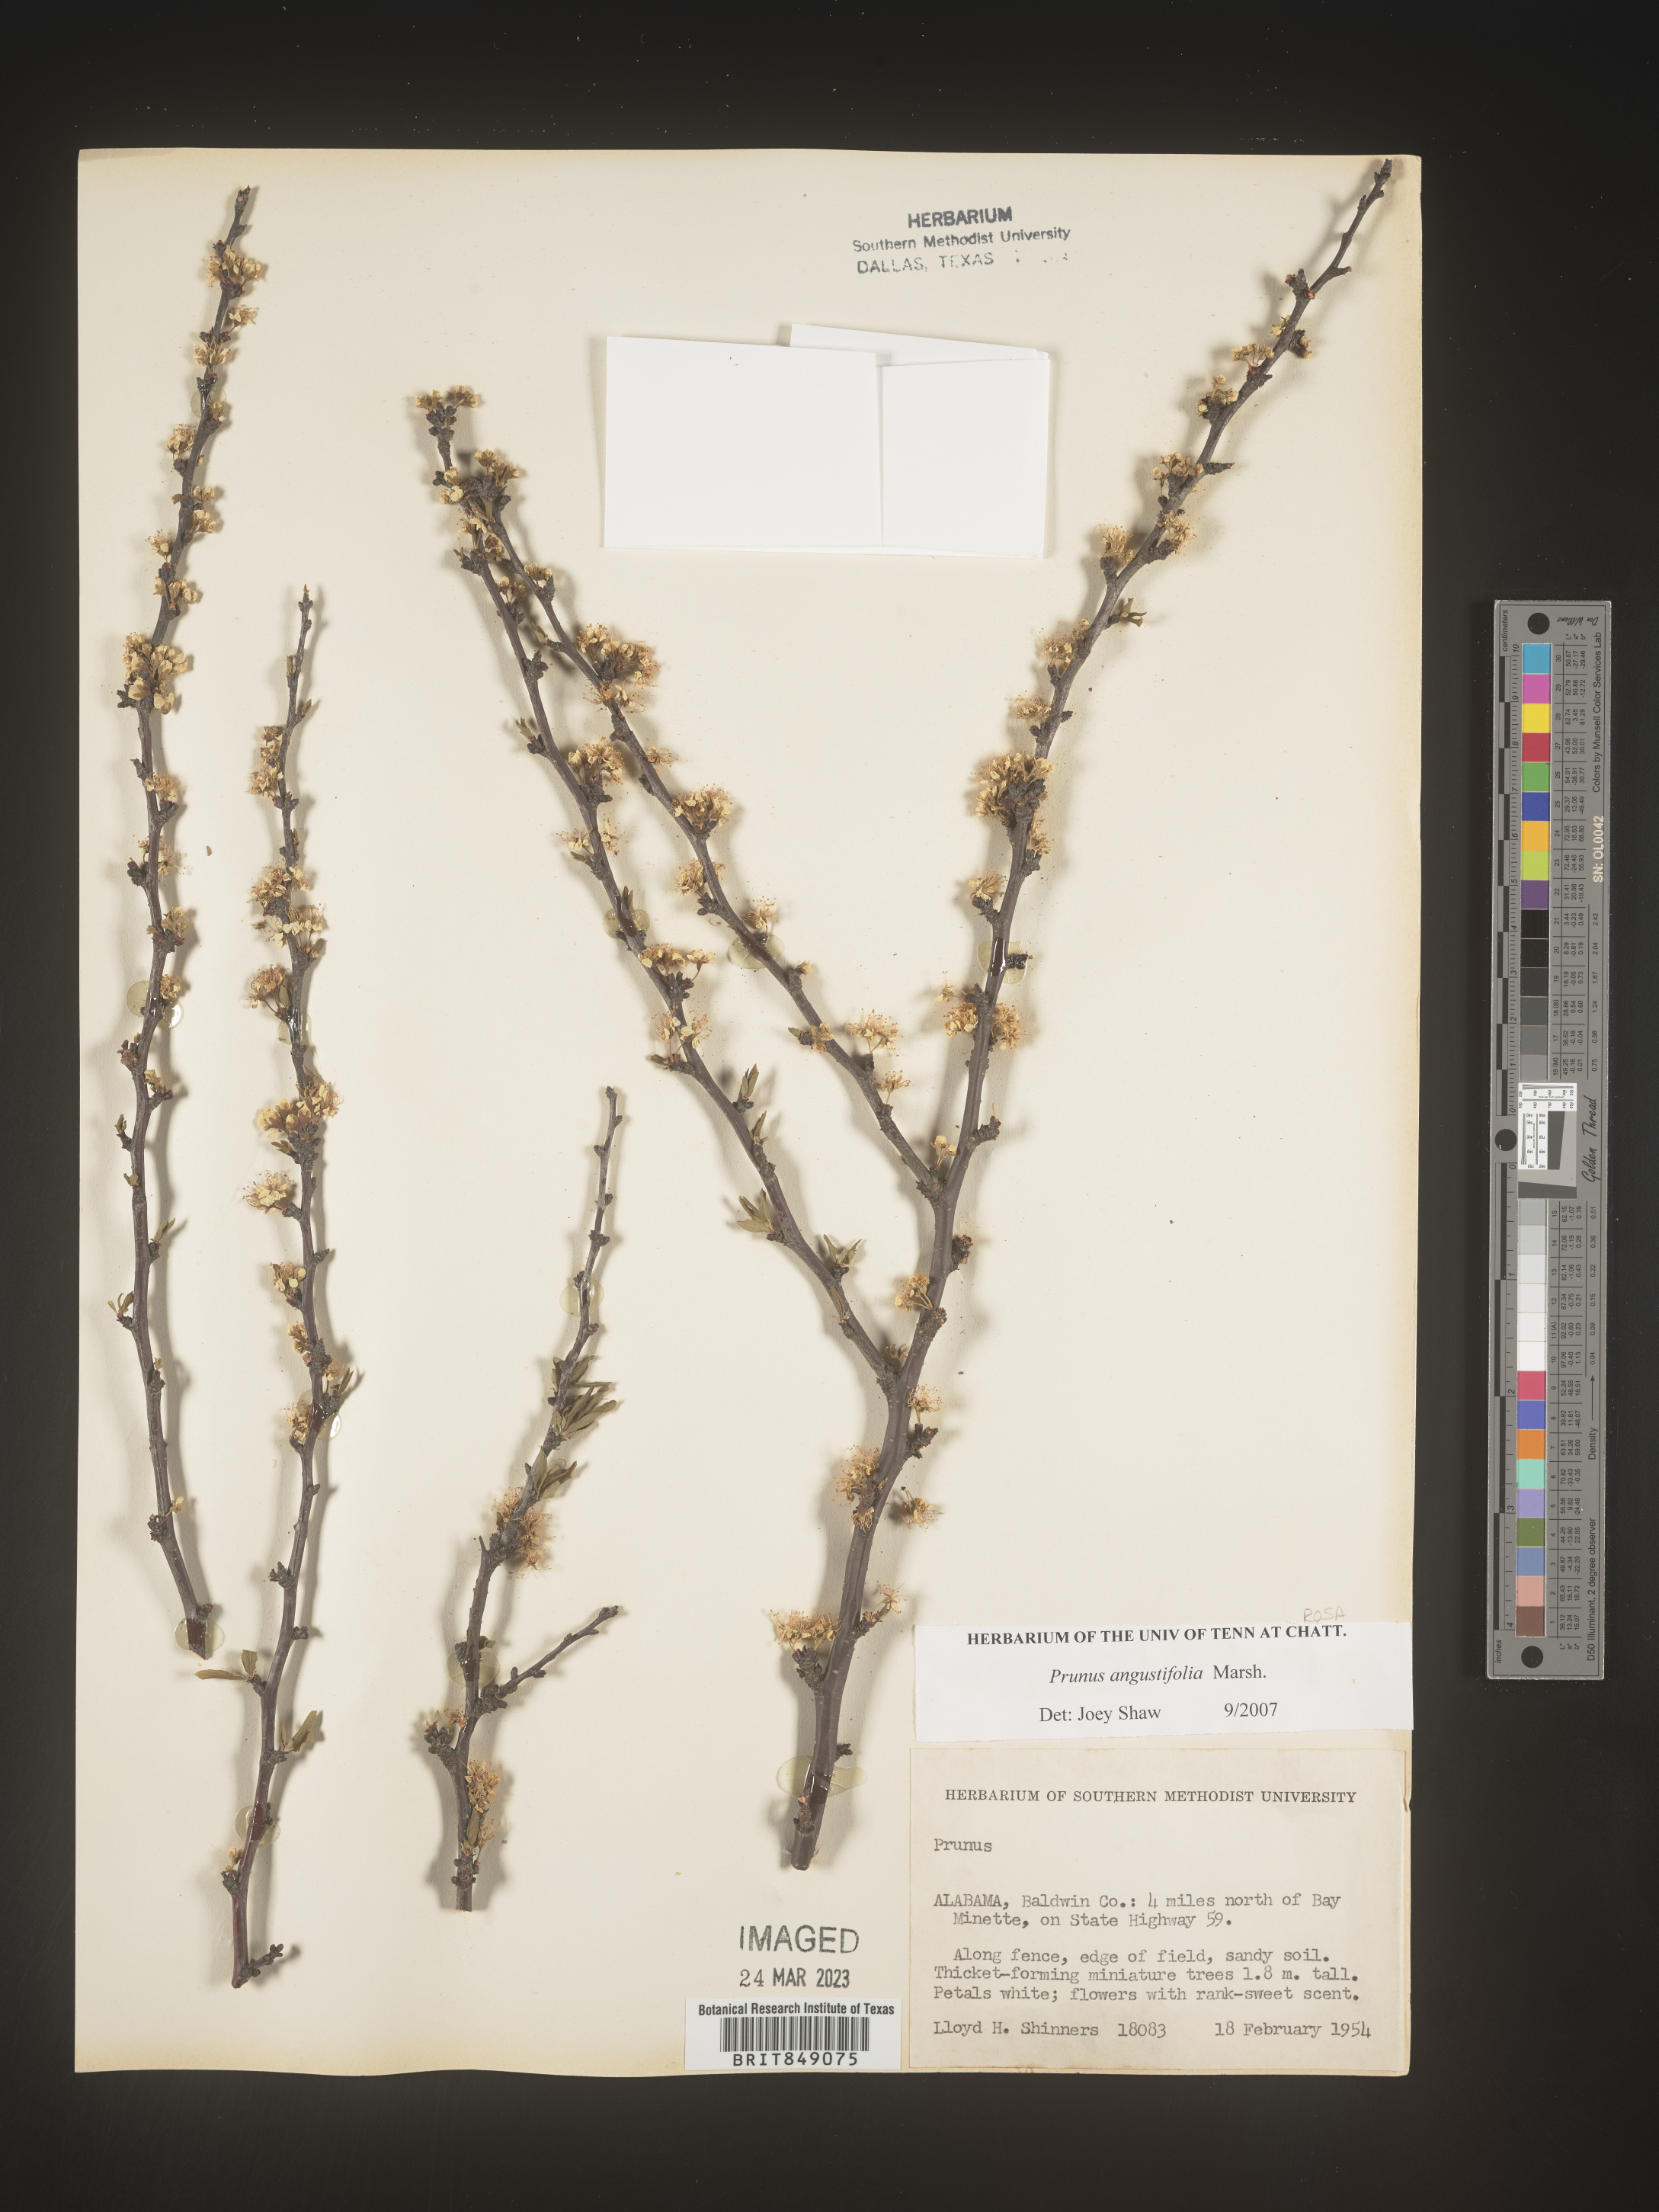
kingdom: Plantae
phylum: Tracheophyta
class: Magnoliopsida
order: Rosales
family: Rosaceae
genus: Prunus
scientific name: Prunus angustifolia
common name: Cherokee plum
